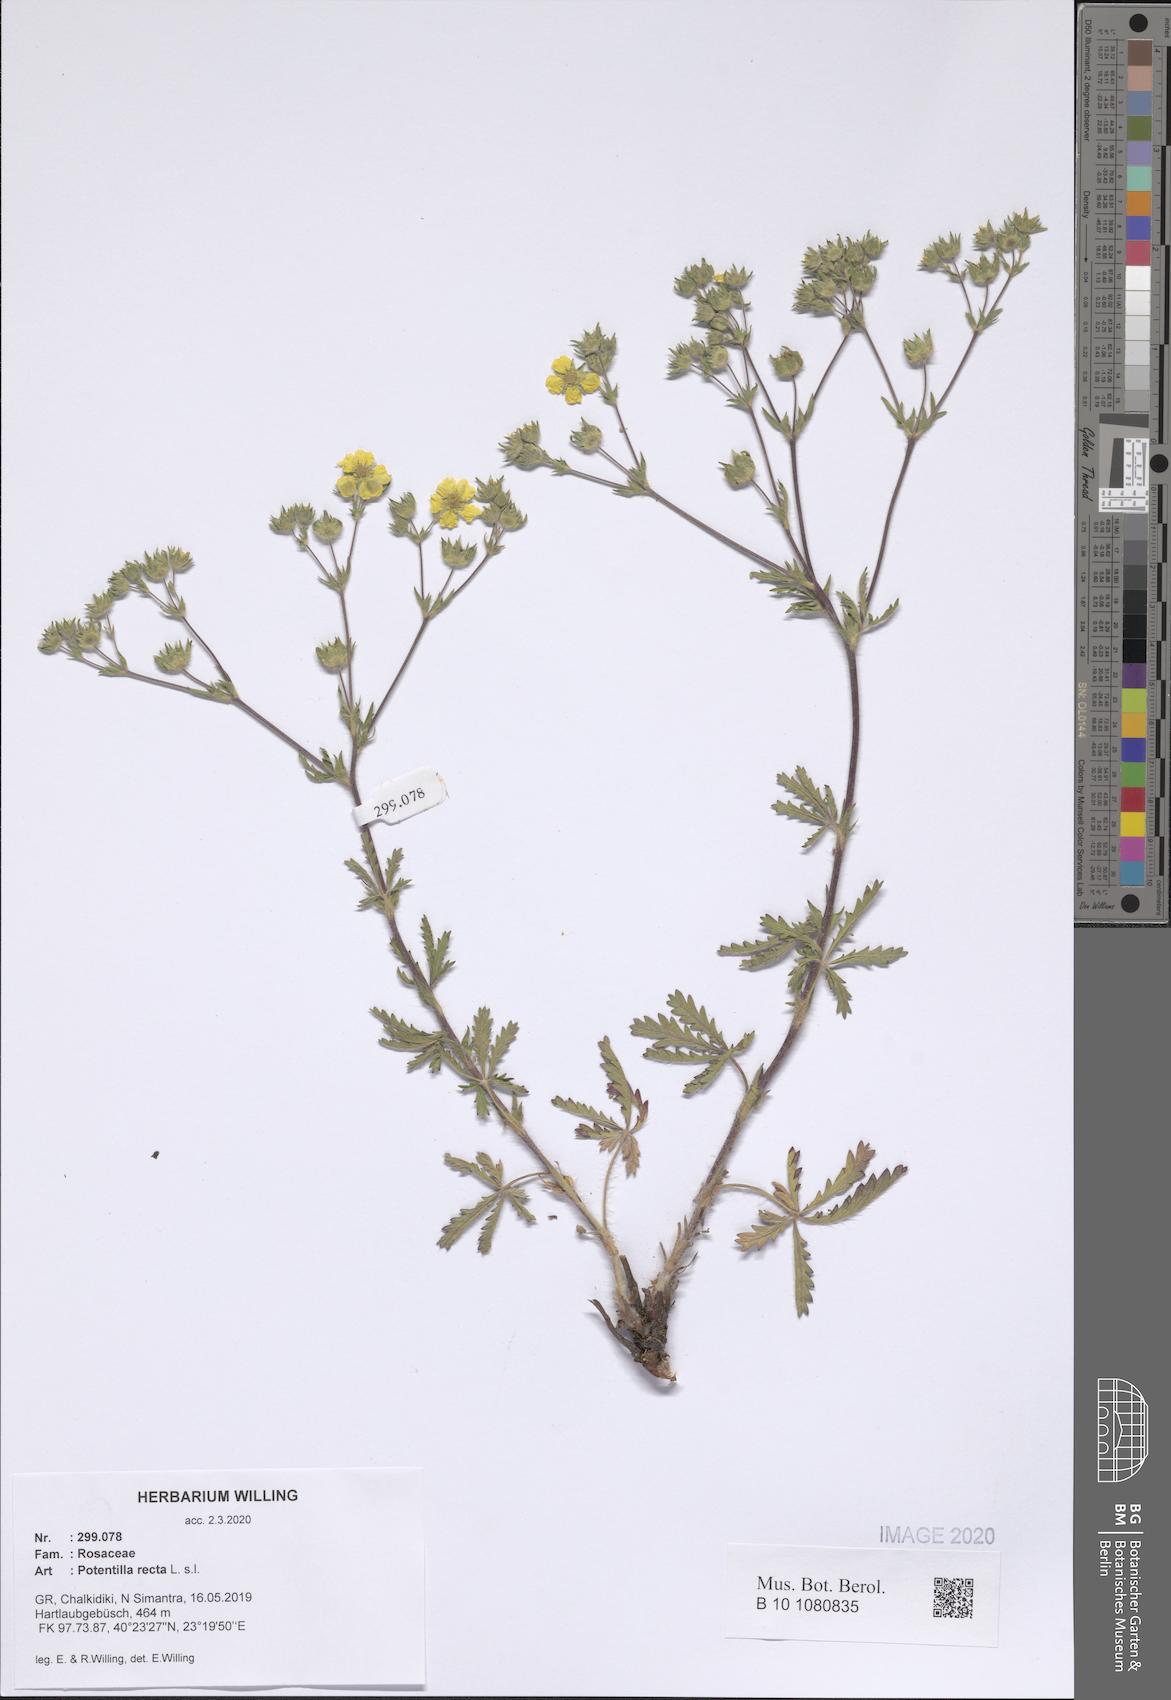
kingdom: Plantae
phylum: Tracheophyta
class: Magnoliopsida
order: Rosales
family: Rosaceae
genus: Potentilla
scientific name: Potentilla recta
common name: Sulphur cinquefoil
